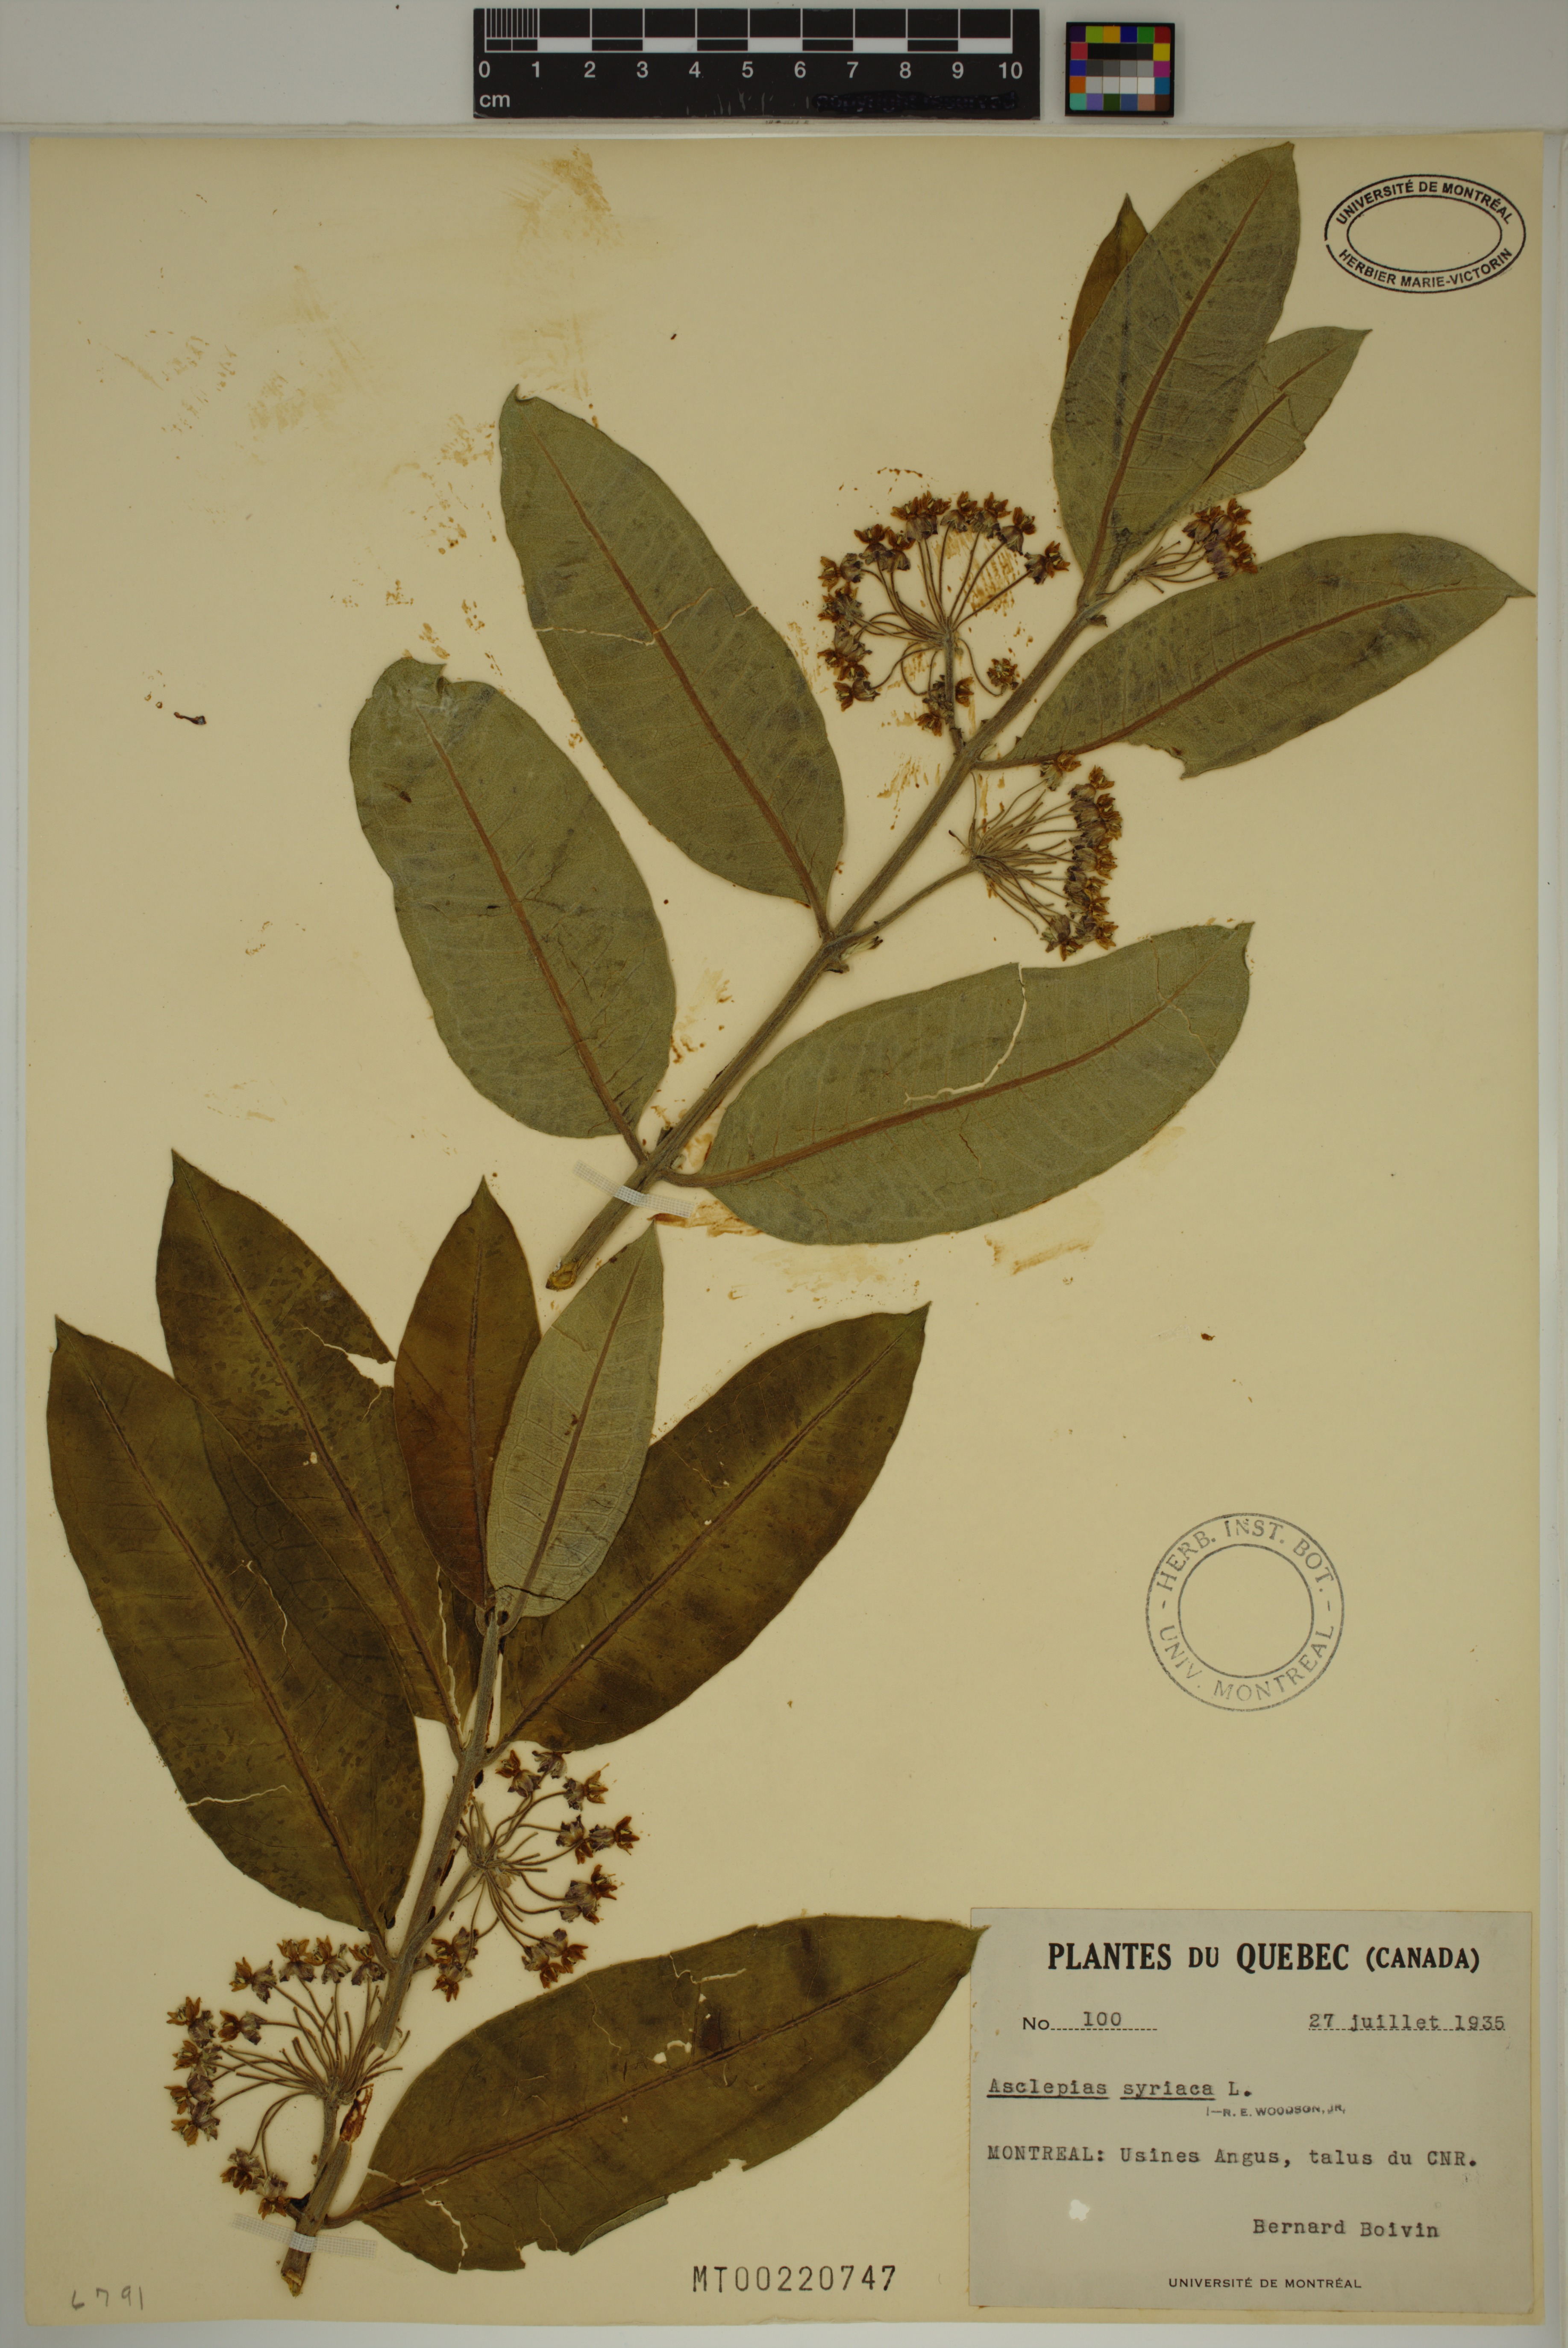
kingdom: Plantae
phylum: Tracheophyta
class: Magnoliopsida
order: Gentianales
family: Apocynaceae
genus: Asclepias
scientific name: Asclepias syriaca
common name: Common milkweed
